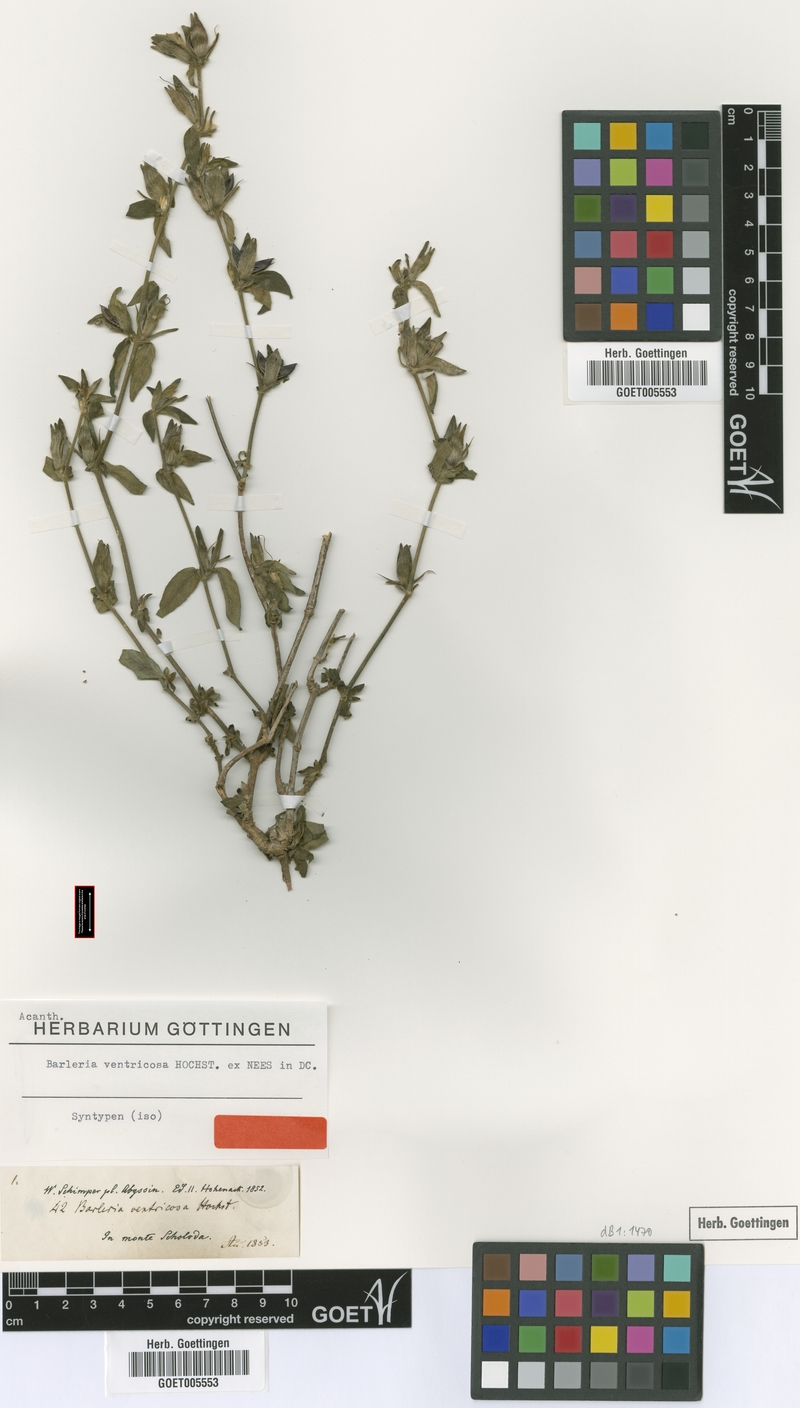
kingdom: Plantae
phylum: Tracheophyta
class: Magnoliopsida
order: Lamiales
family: Acanthaceae
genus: Barleria
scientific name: Barleria ventricosa
